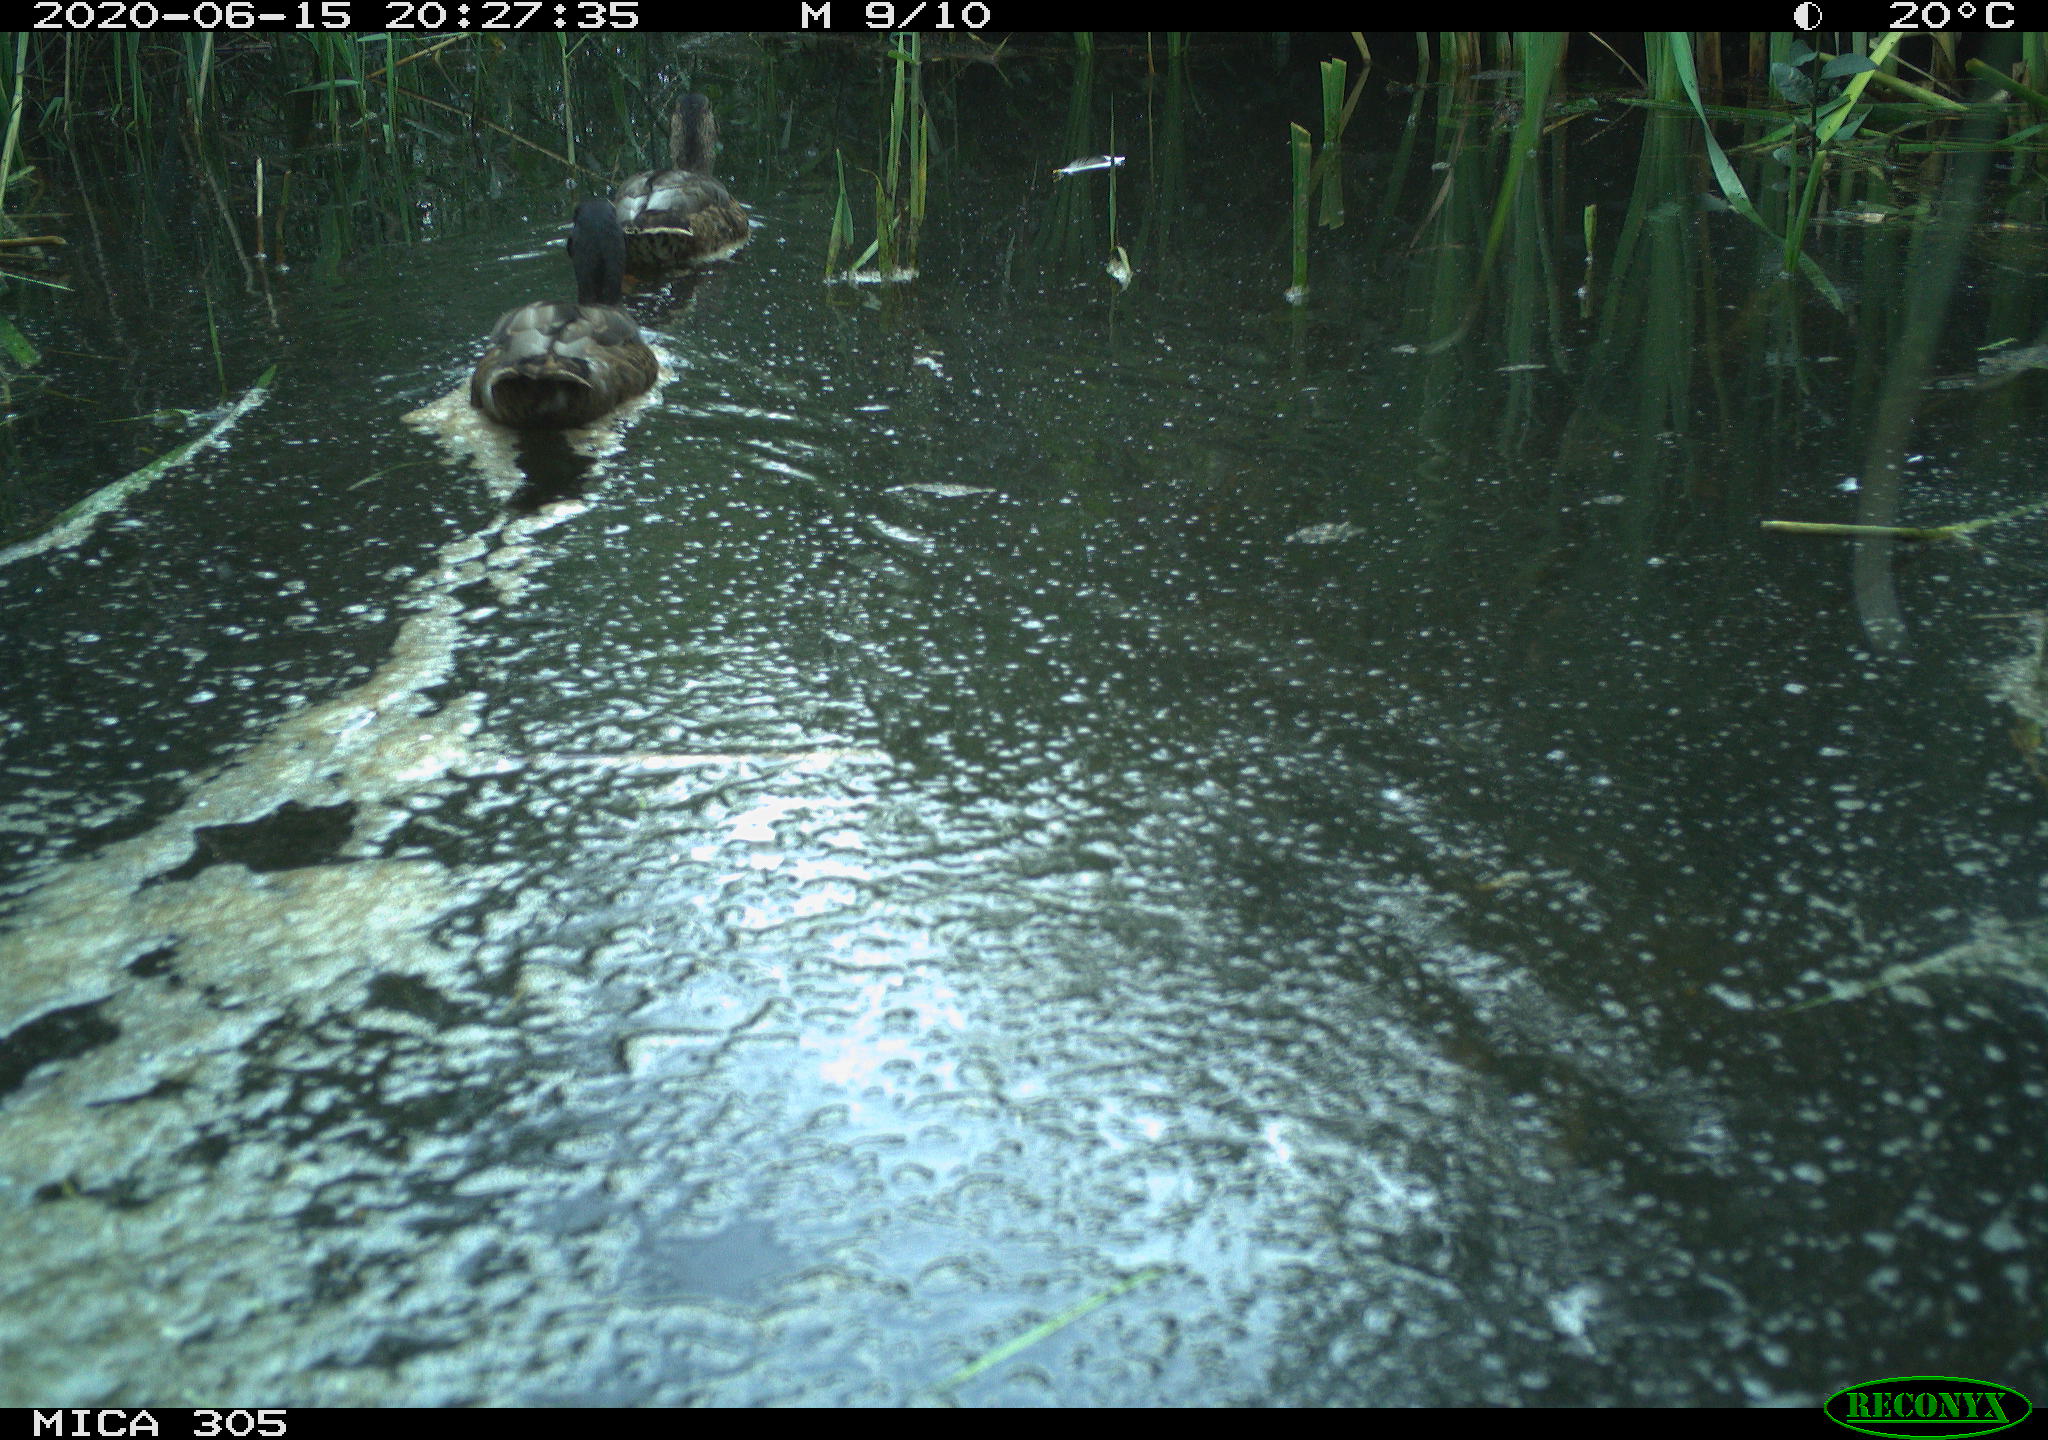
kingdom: Animalia
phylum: Chordata
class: Aves
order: Anseriformes
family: Anatidae
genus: Anas
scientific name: Anas platyrhynchos
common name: Mallard
